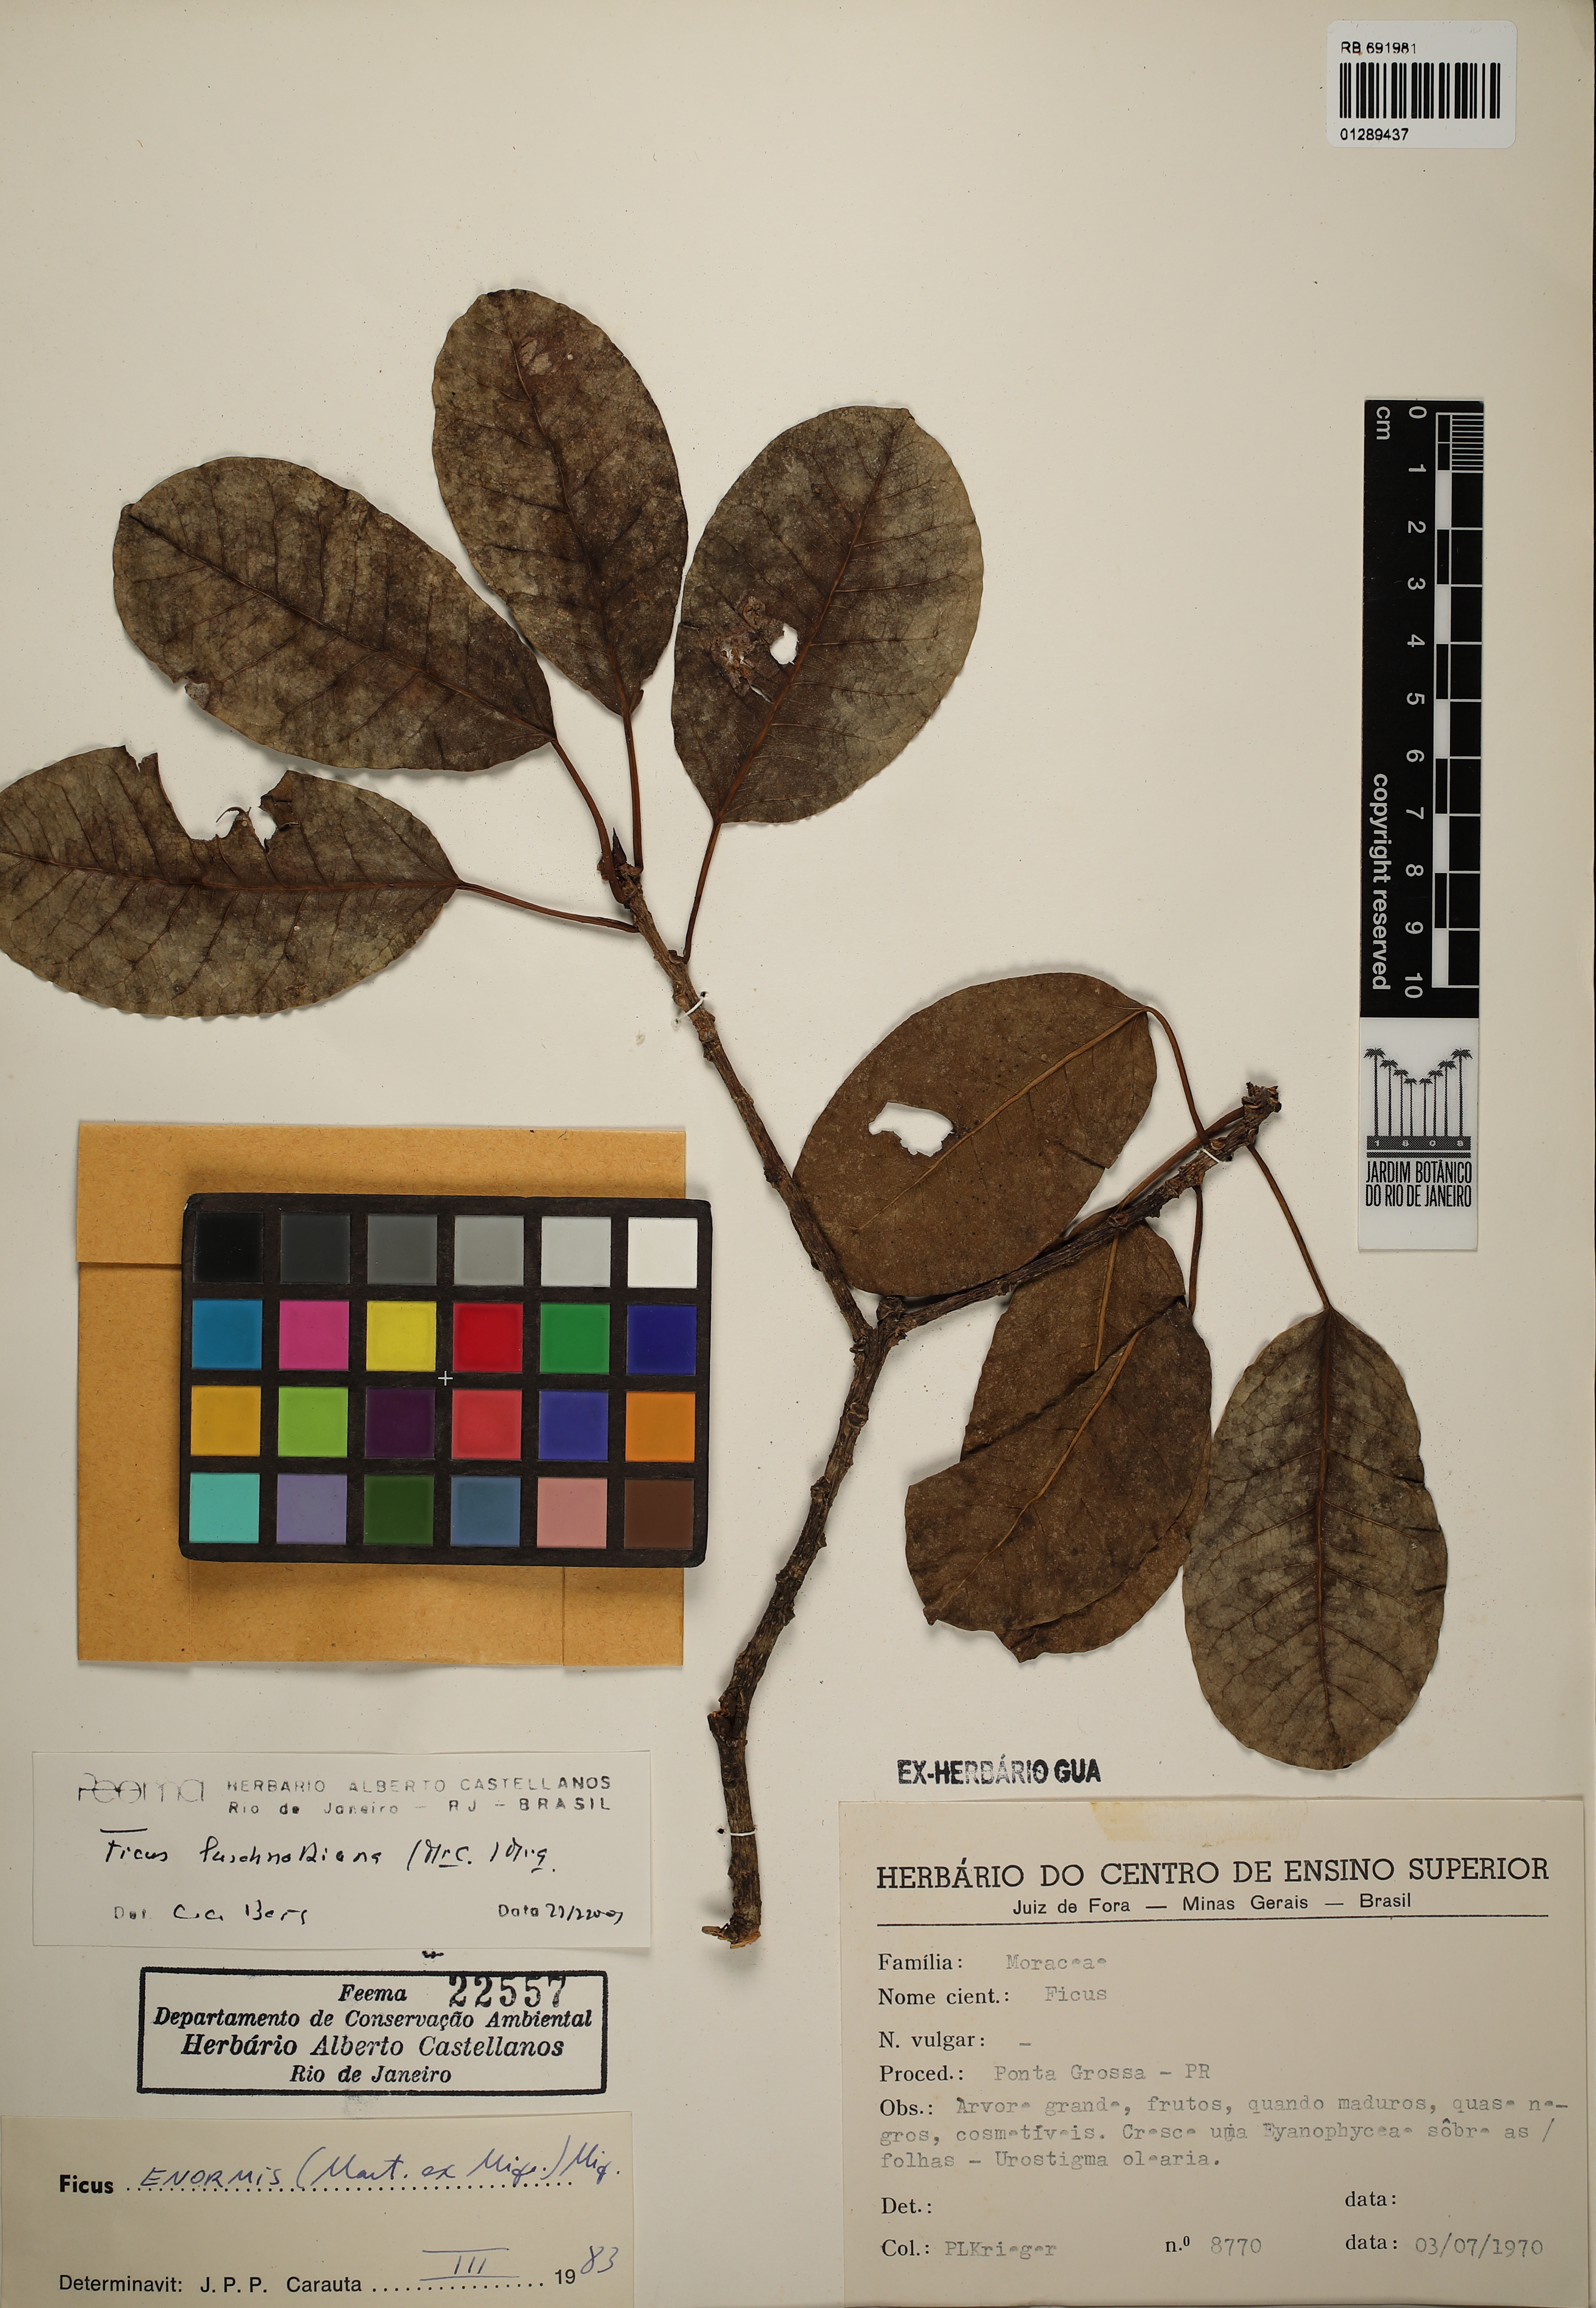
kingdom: Plantae
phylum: Tracheophyta
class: Magnoliopsida
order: Rosales
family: Moraceae
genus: Ficus
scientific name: Ficus luschnathiana
